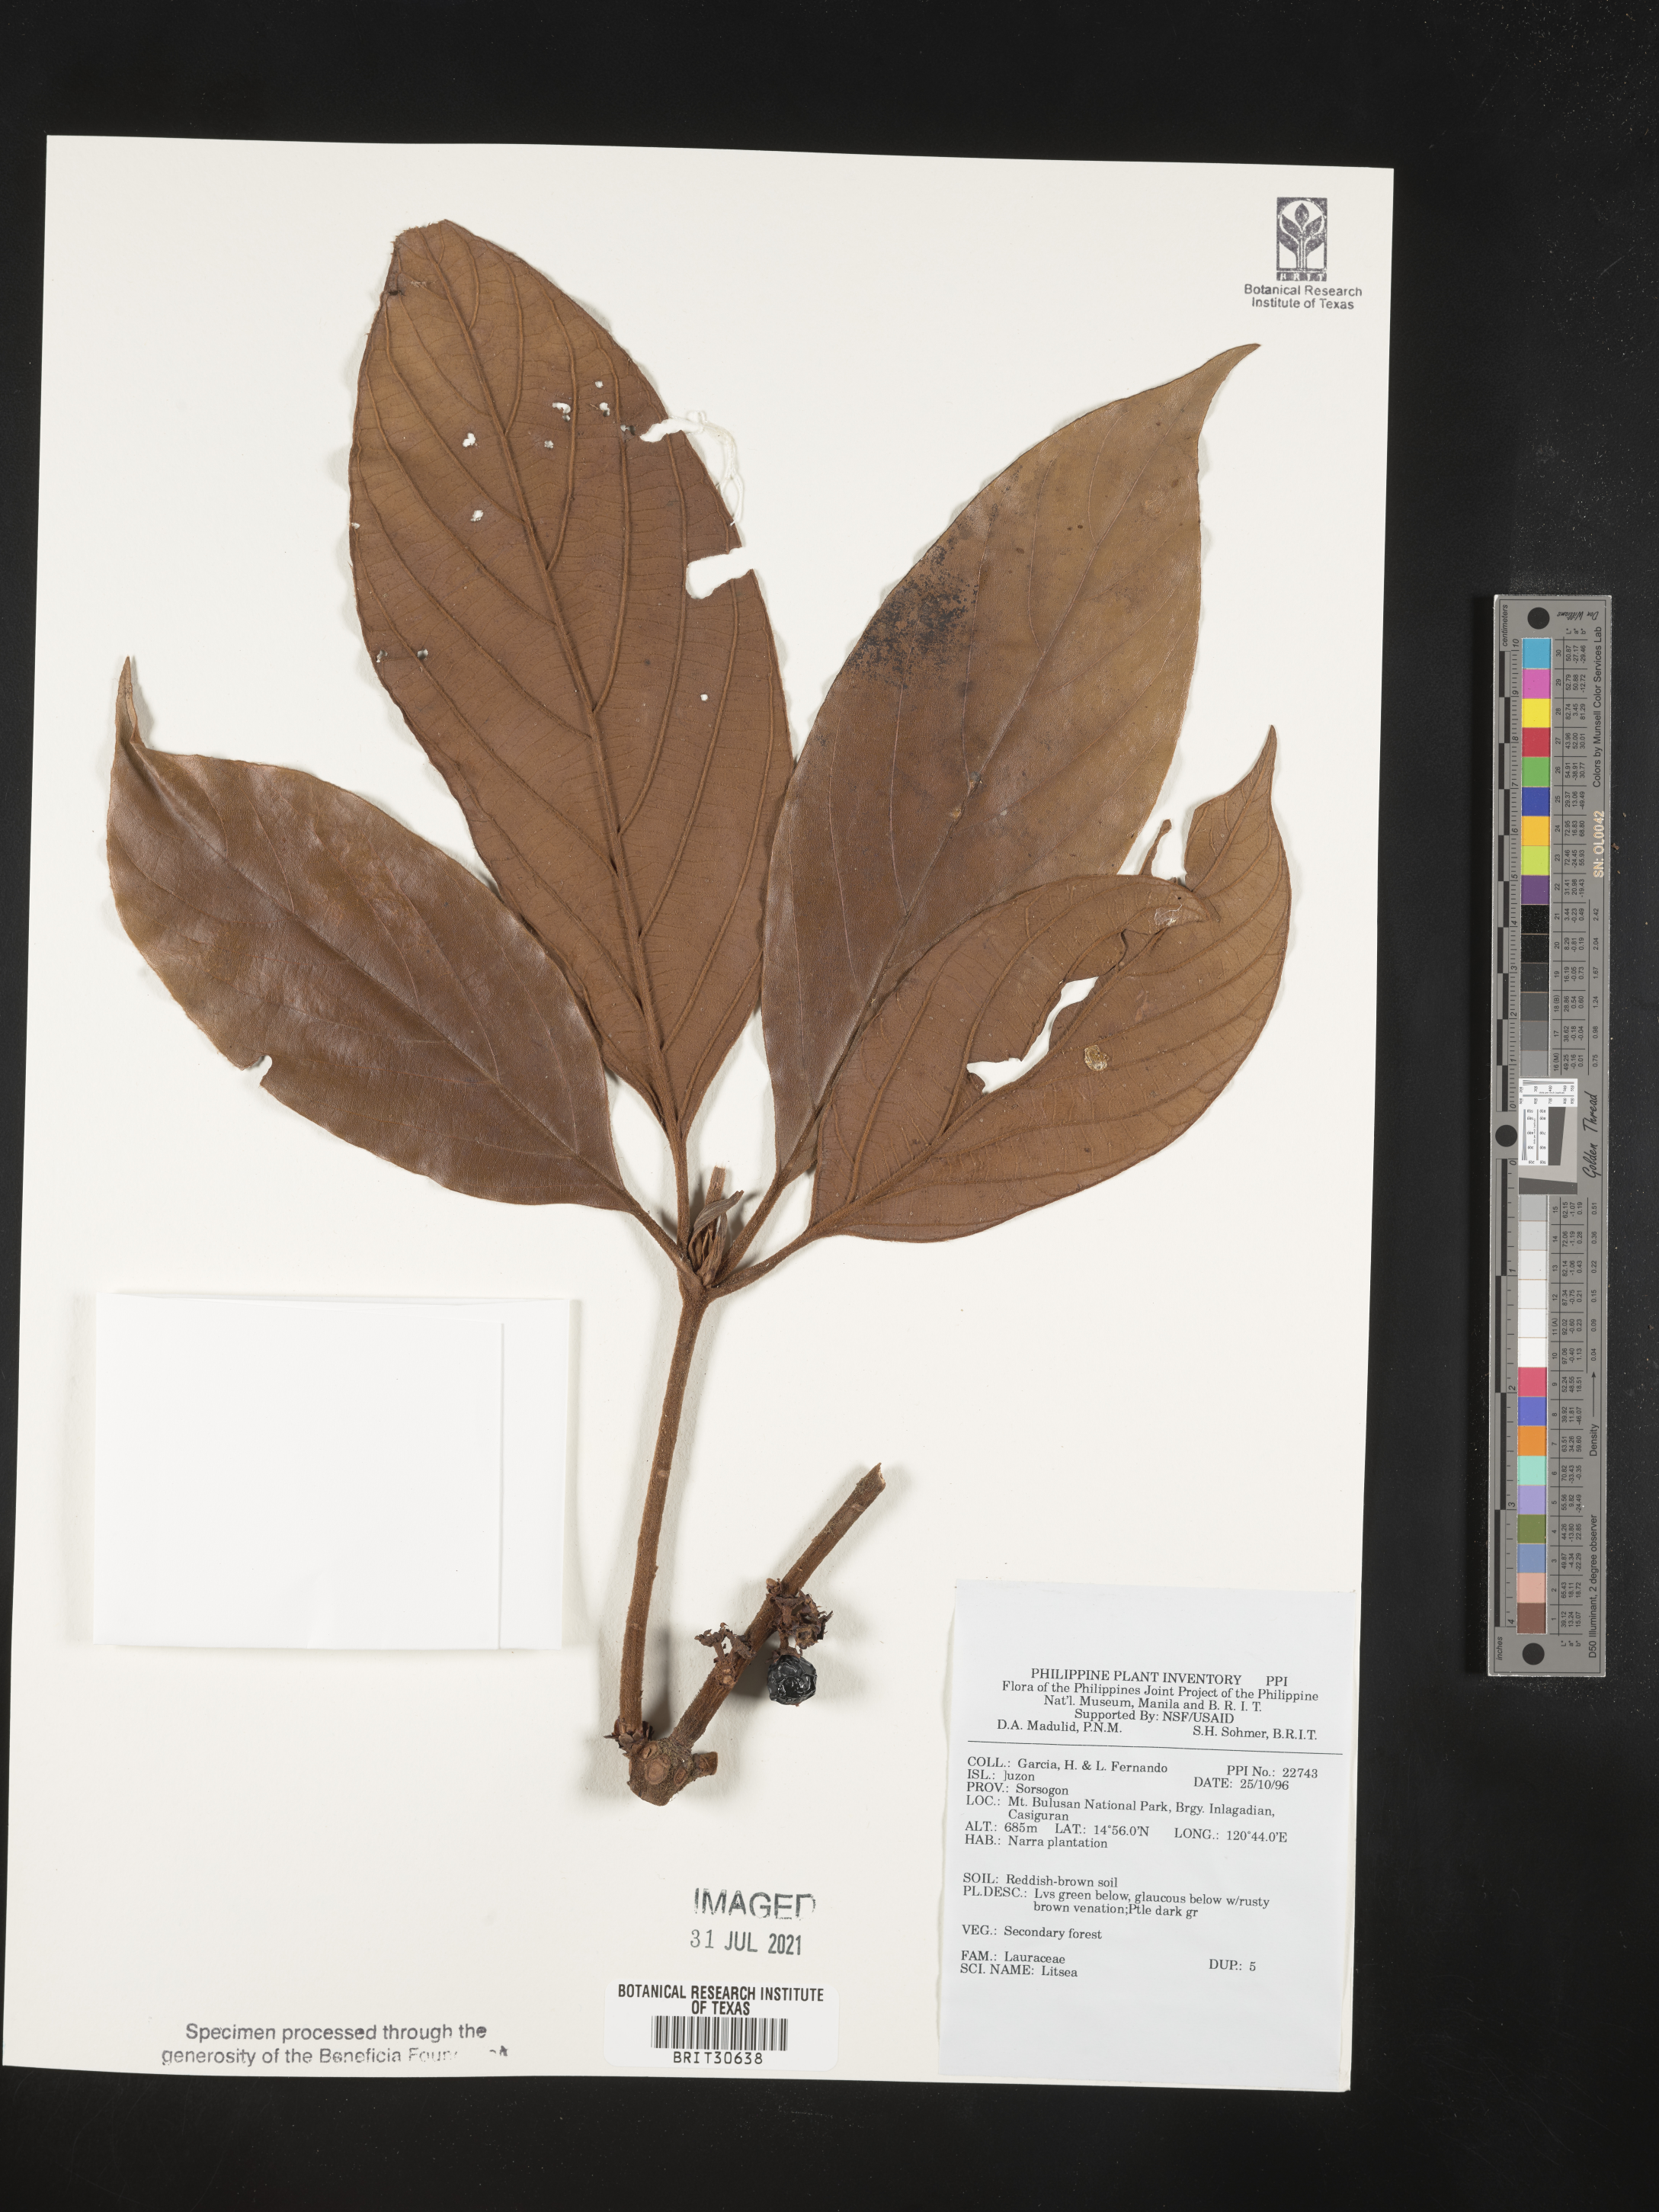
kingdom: Plantae
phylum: Tracheophyta
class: Magnoliopsida
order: Laurales
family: Lauraceae
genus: Litsea
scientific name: Litsea
